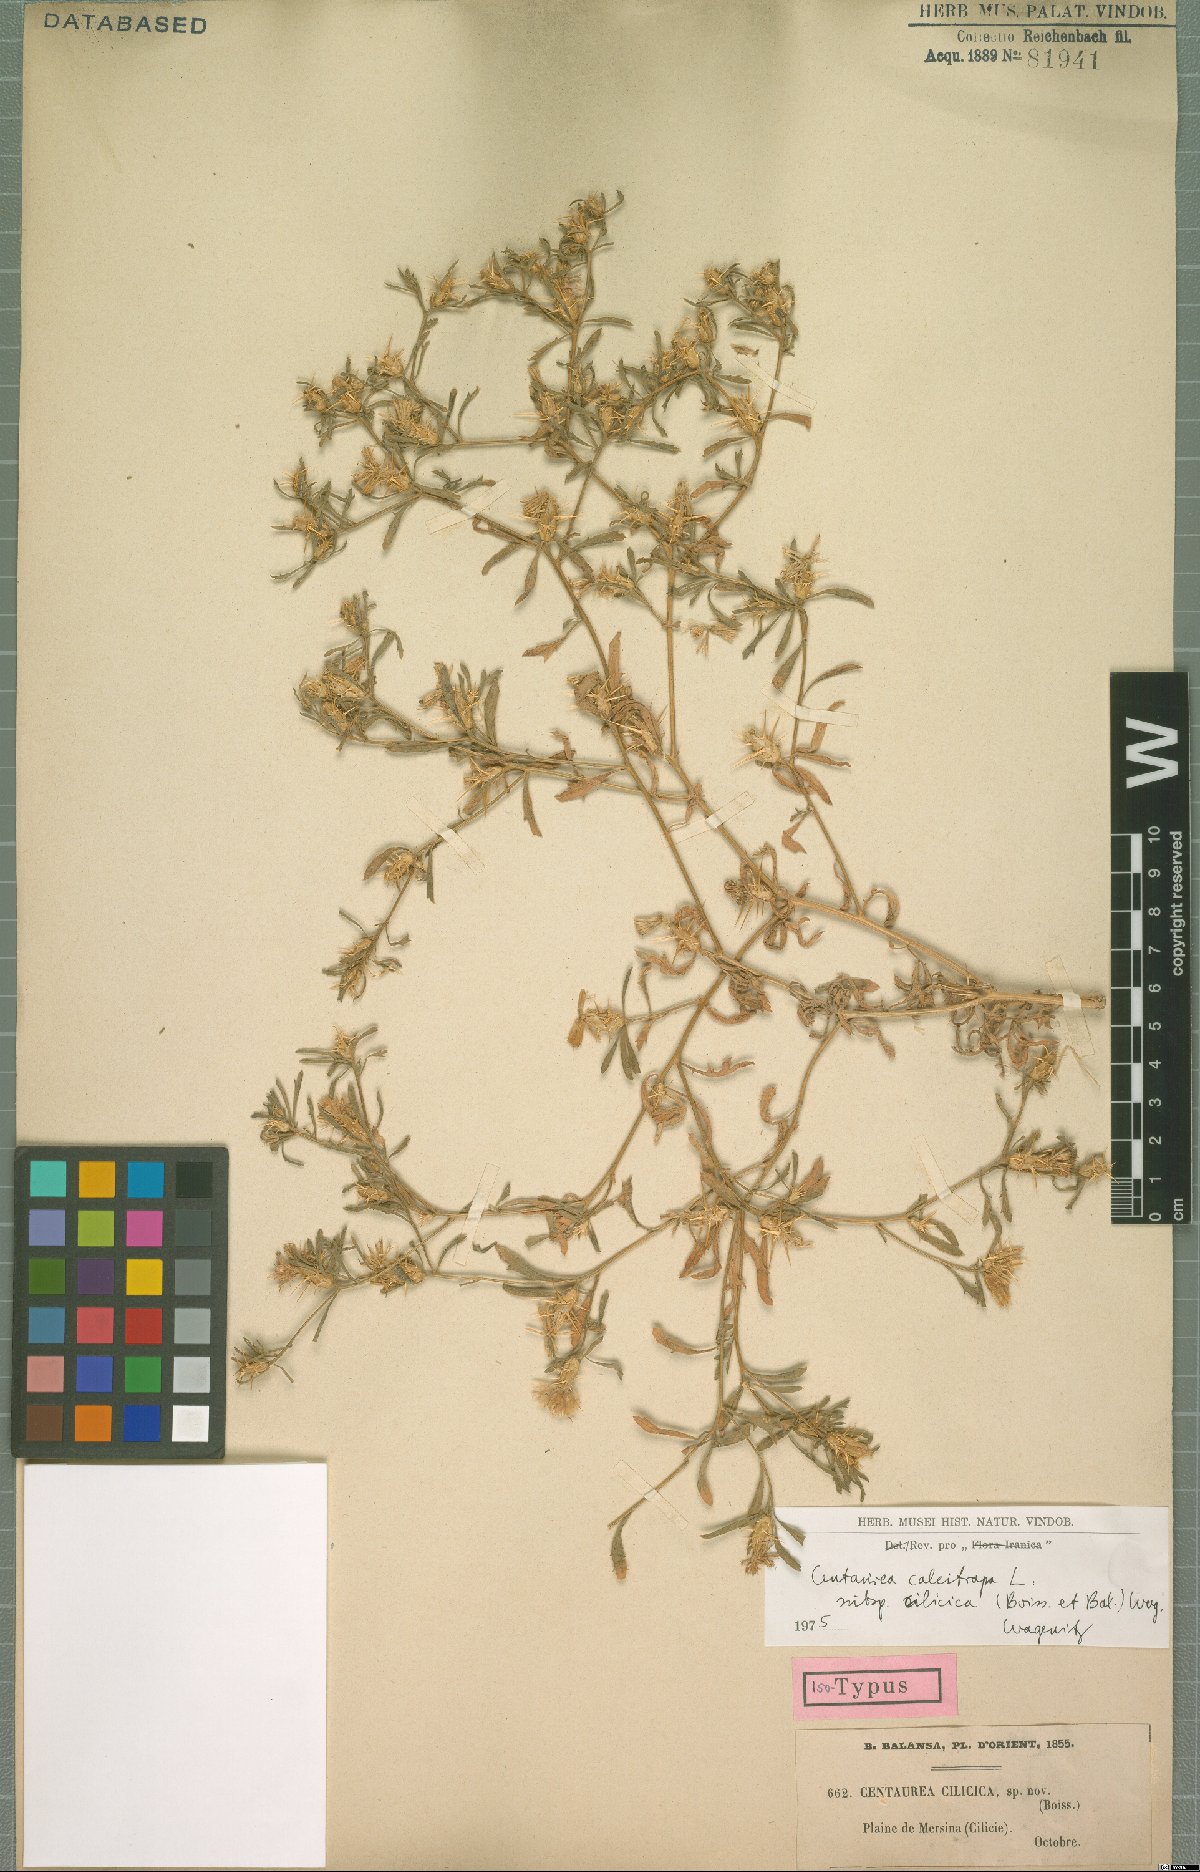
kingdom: Plantae
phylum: Tracheophyta
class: Magnoliopsida
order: Asterales
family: Asteraceae
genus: Centaurea
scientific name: Centaurea calcitrapa
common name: Red star-thistle
